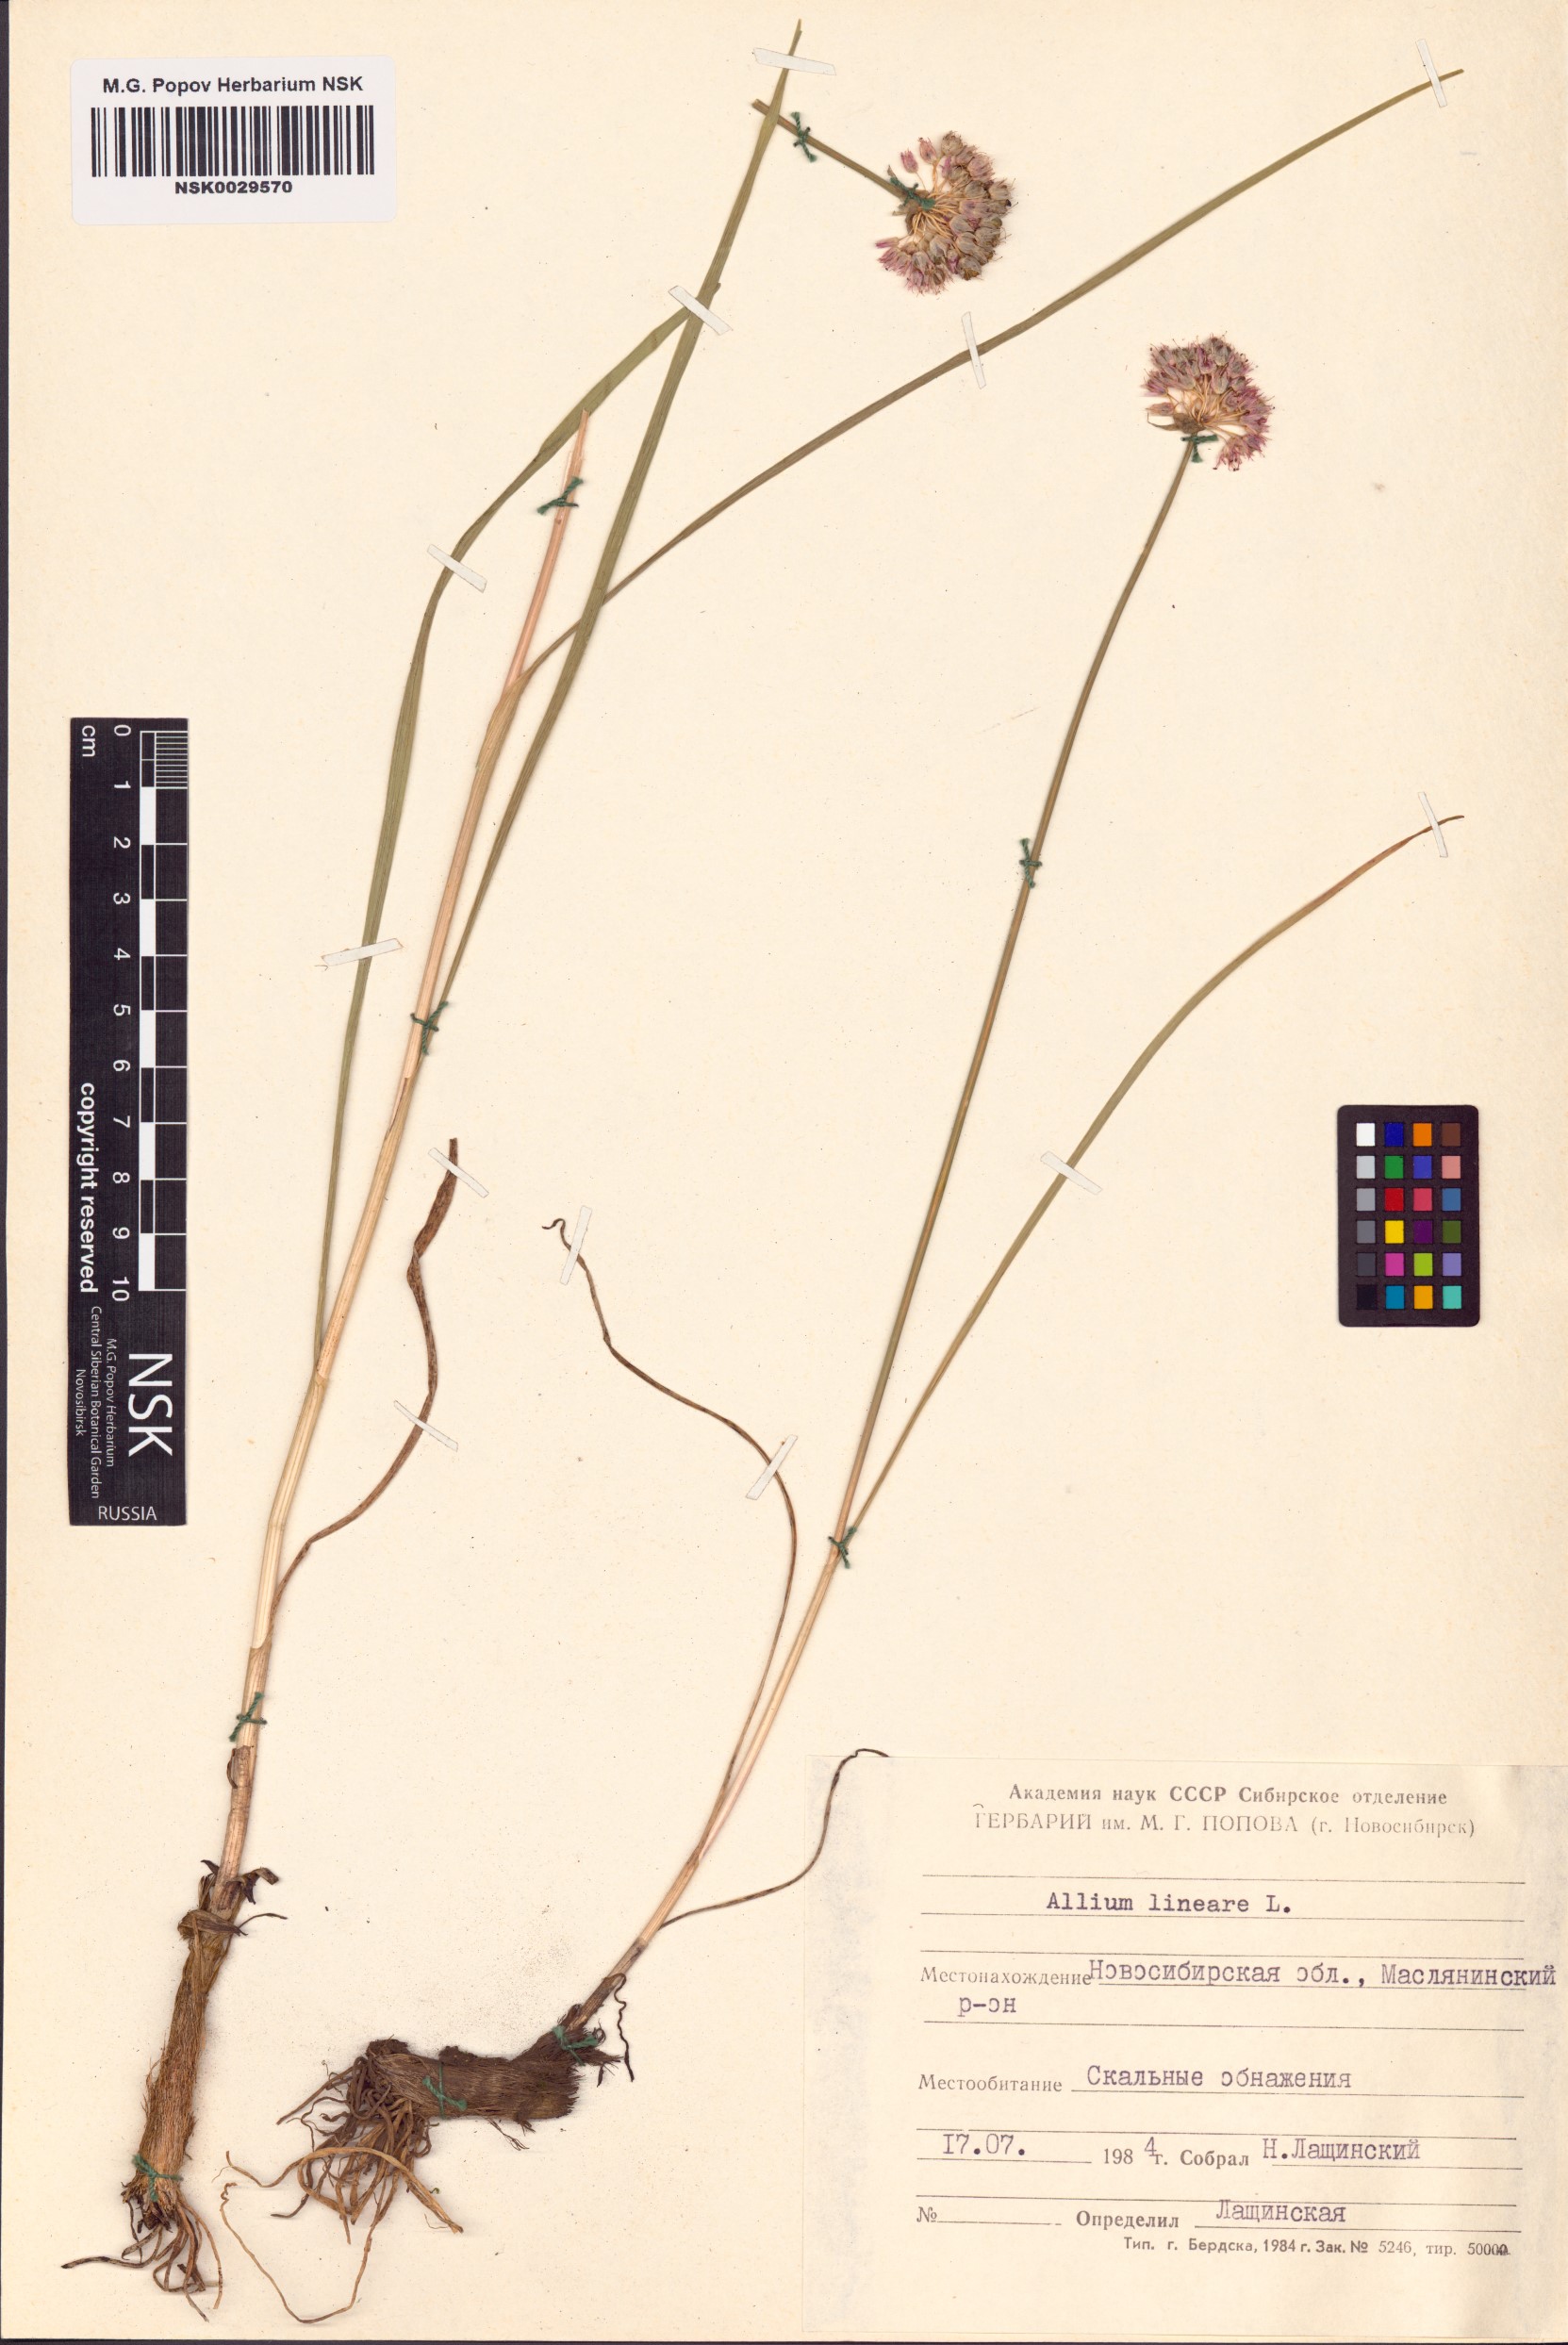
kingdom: Plantae
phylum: Tracheophyta
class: Liliopsida
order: Asparagales
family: Amaryllidaceae
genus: Allium
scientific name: Allium lineare
